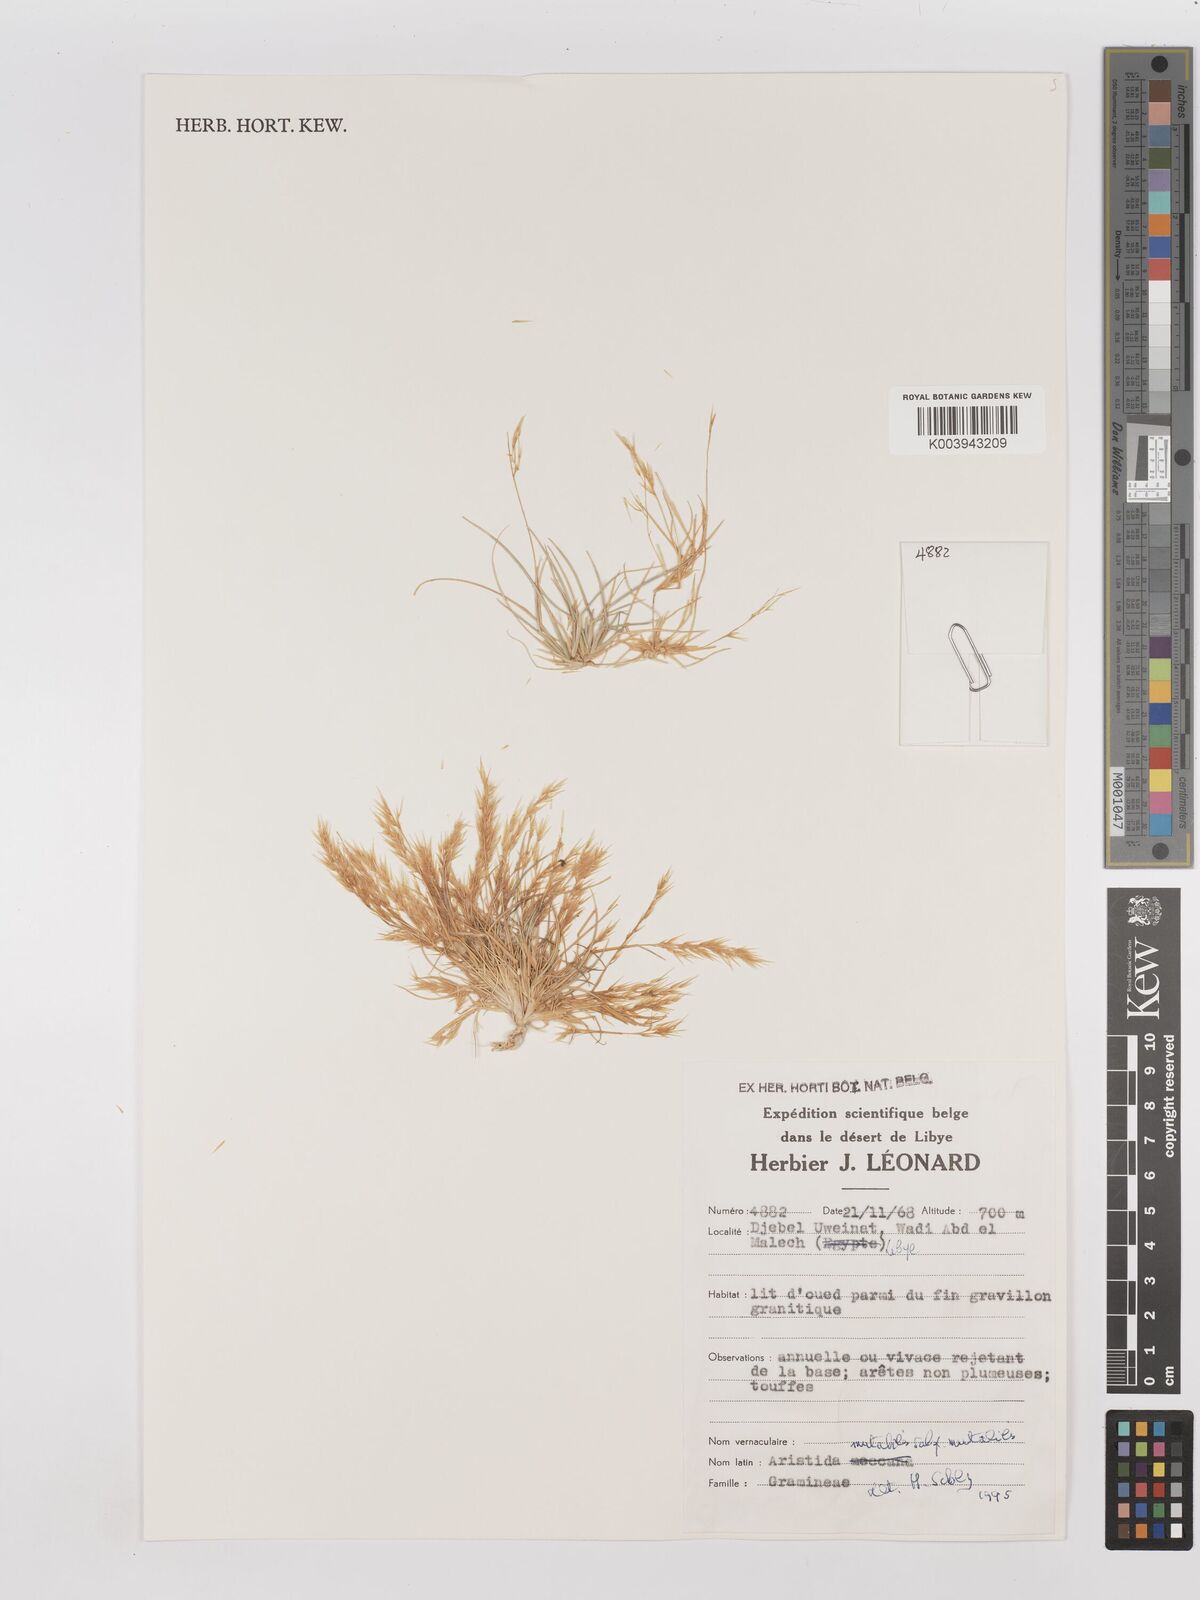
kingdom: Plantae
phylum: Tracheophyta
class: Liliopsida
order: Poales
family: Poaceae
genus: Aristida
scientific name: Aristida mutabilis
